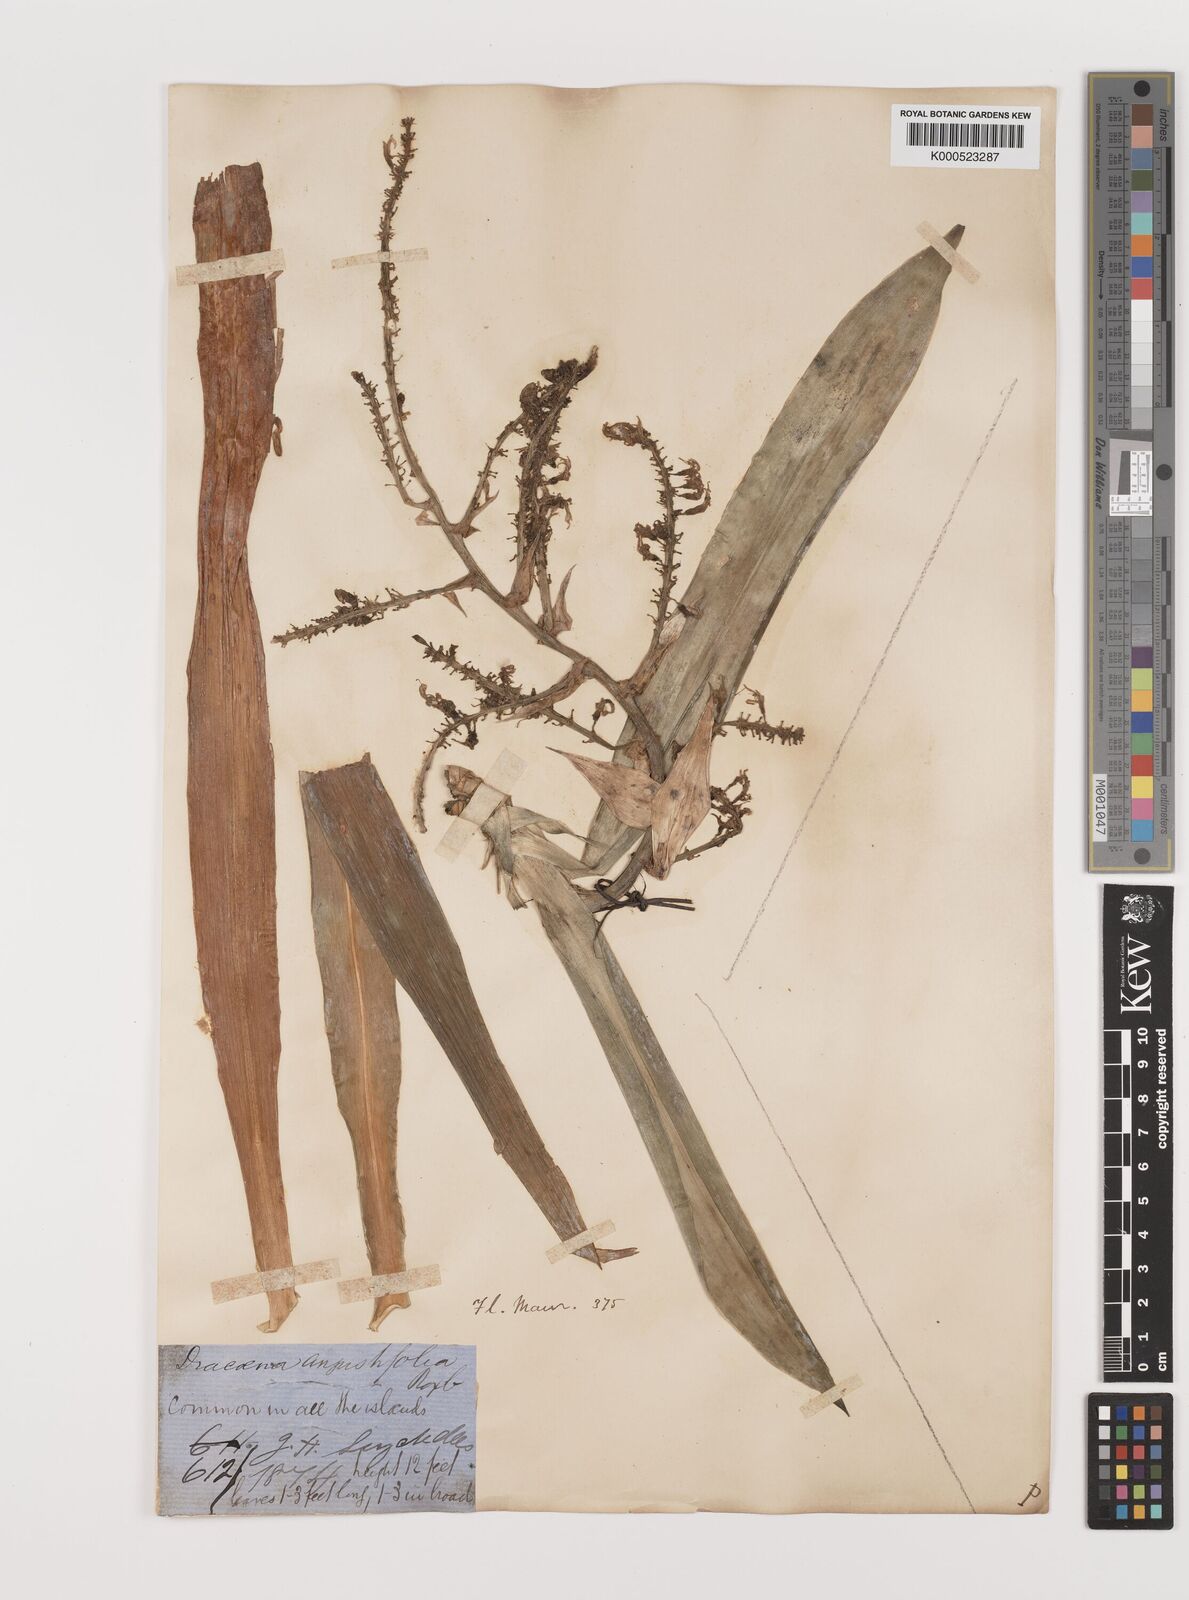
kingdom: Plantae
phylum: Tracheophyta
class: Liliopsida
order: Asparagales
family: Asparagaceae
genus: Dracaena
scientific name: Dracaena angustifolia
